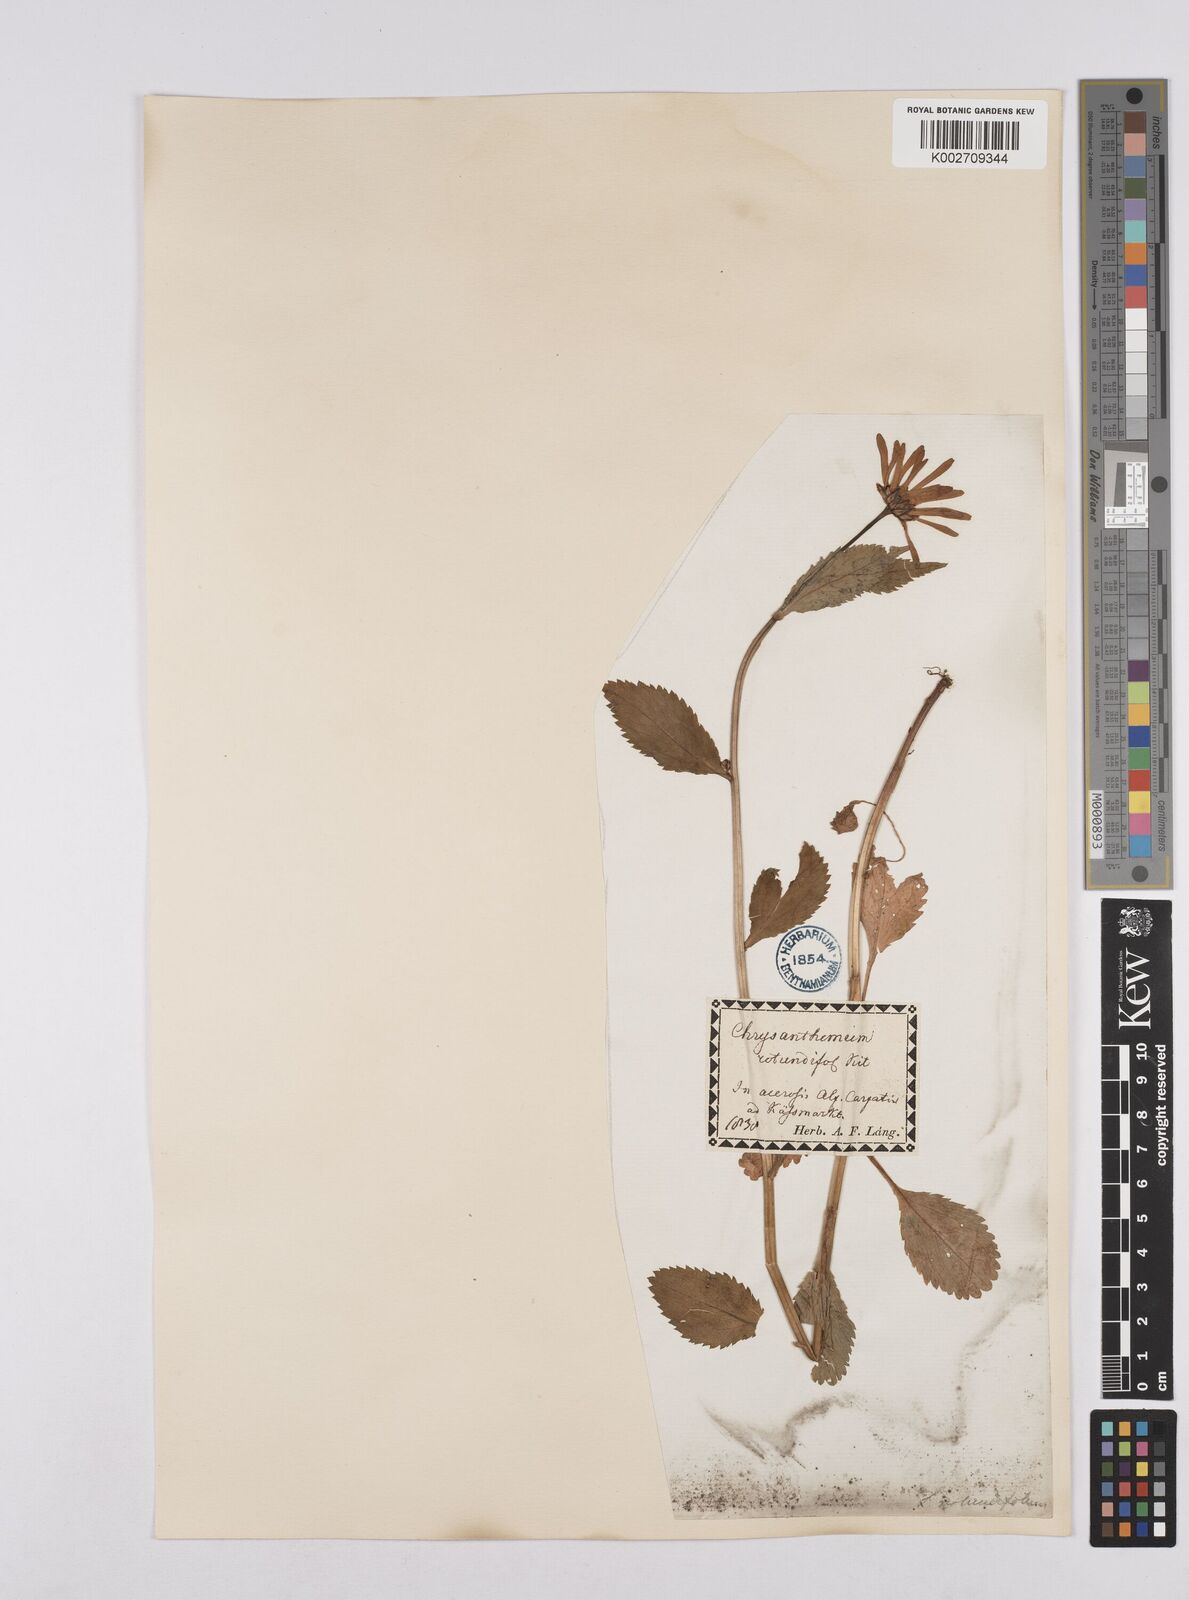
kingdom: Plantae
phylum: Tracheophyta
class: Magnoliopsida
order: Asterales
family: Asteraceae
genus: Leucanthemum
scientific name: Leucanthemum rotundifolium
